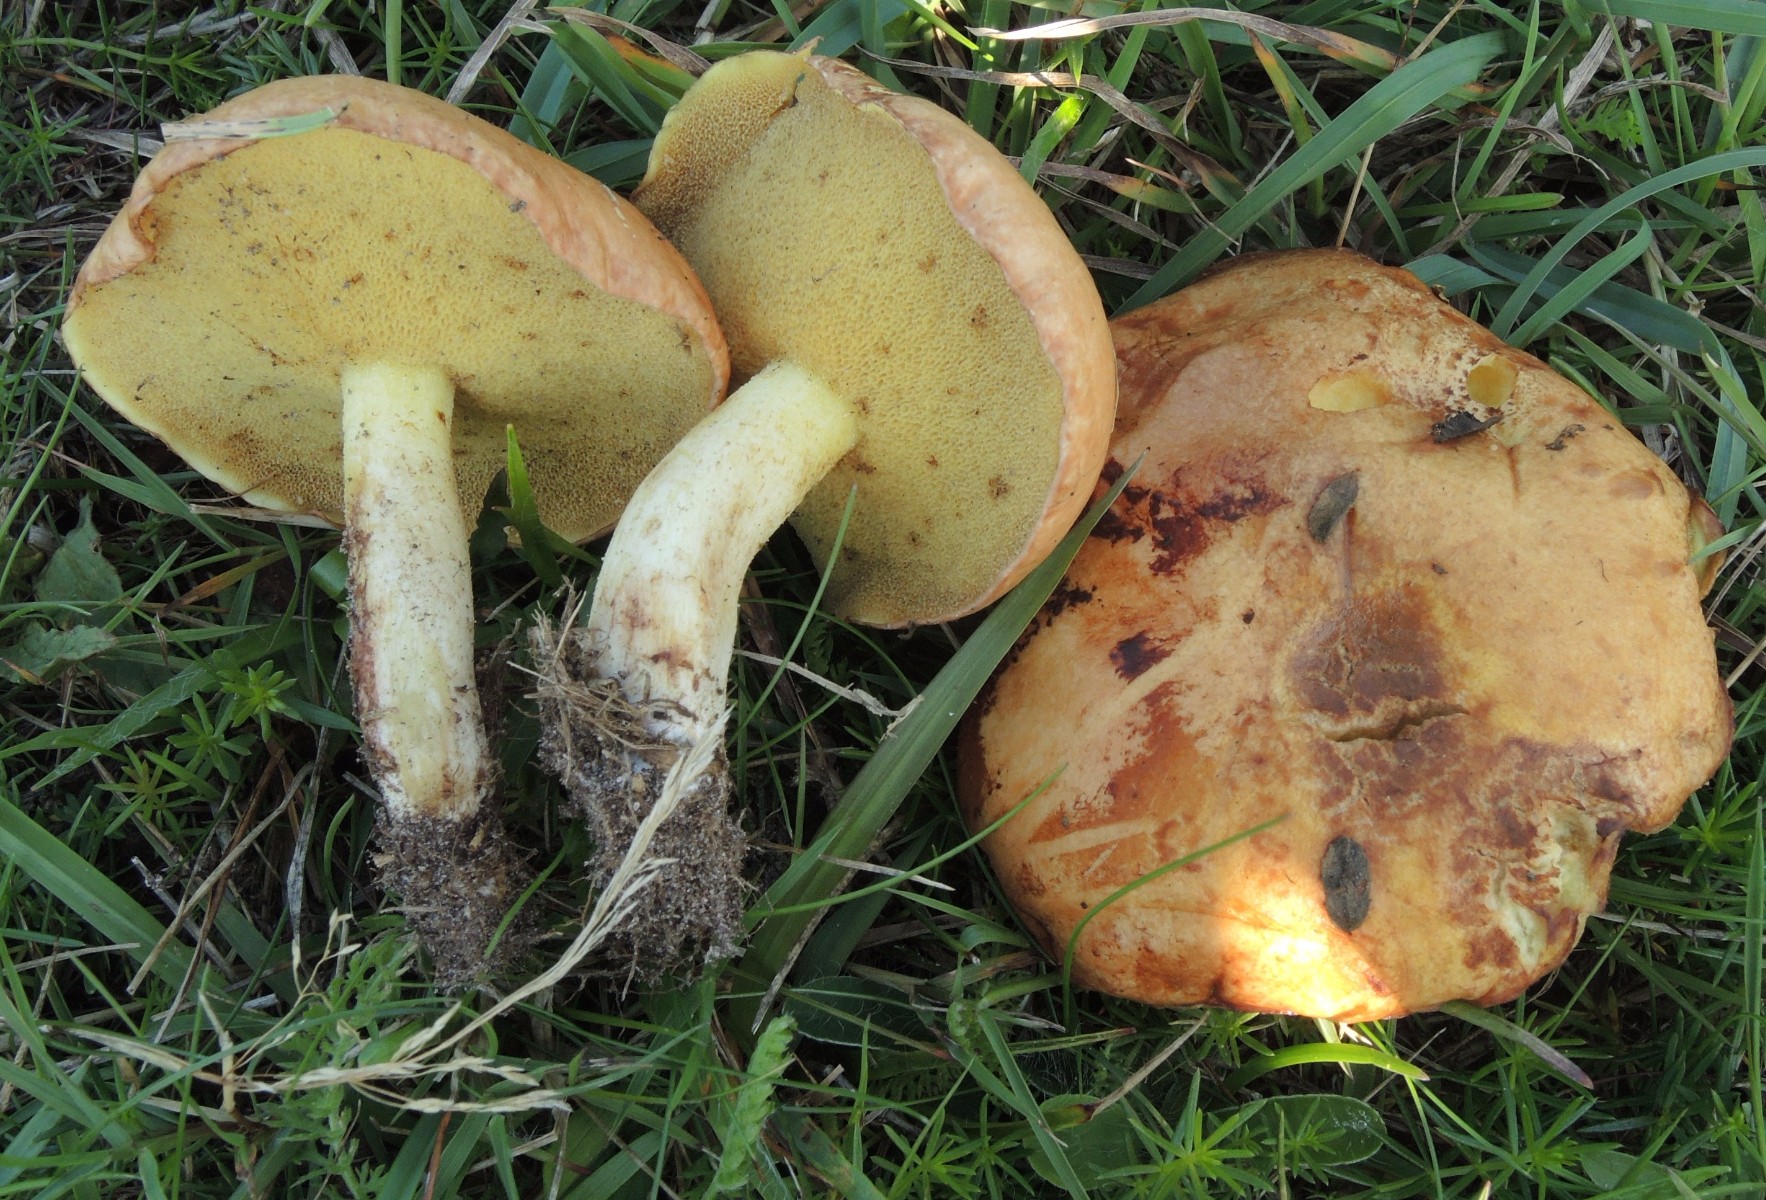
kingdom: Fungi
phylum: Basidiomycota
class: Agaricomycetes
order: Boletales
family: Suillaceae
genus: Suillus
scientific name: Suillus granulatus
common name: kornet slimrørhat
